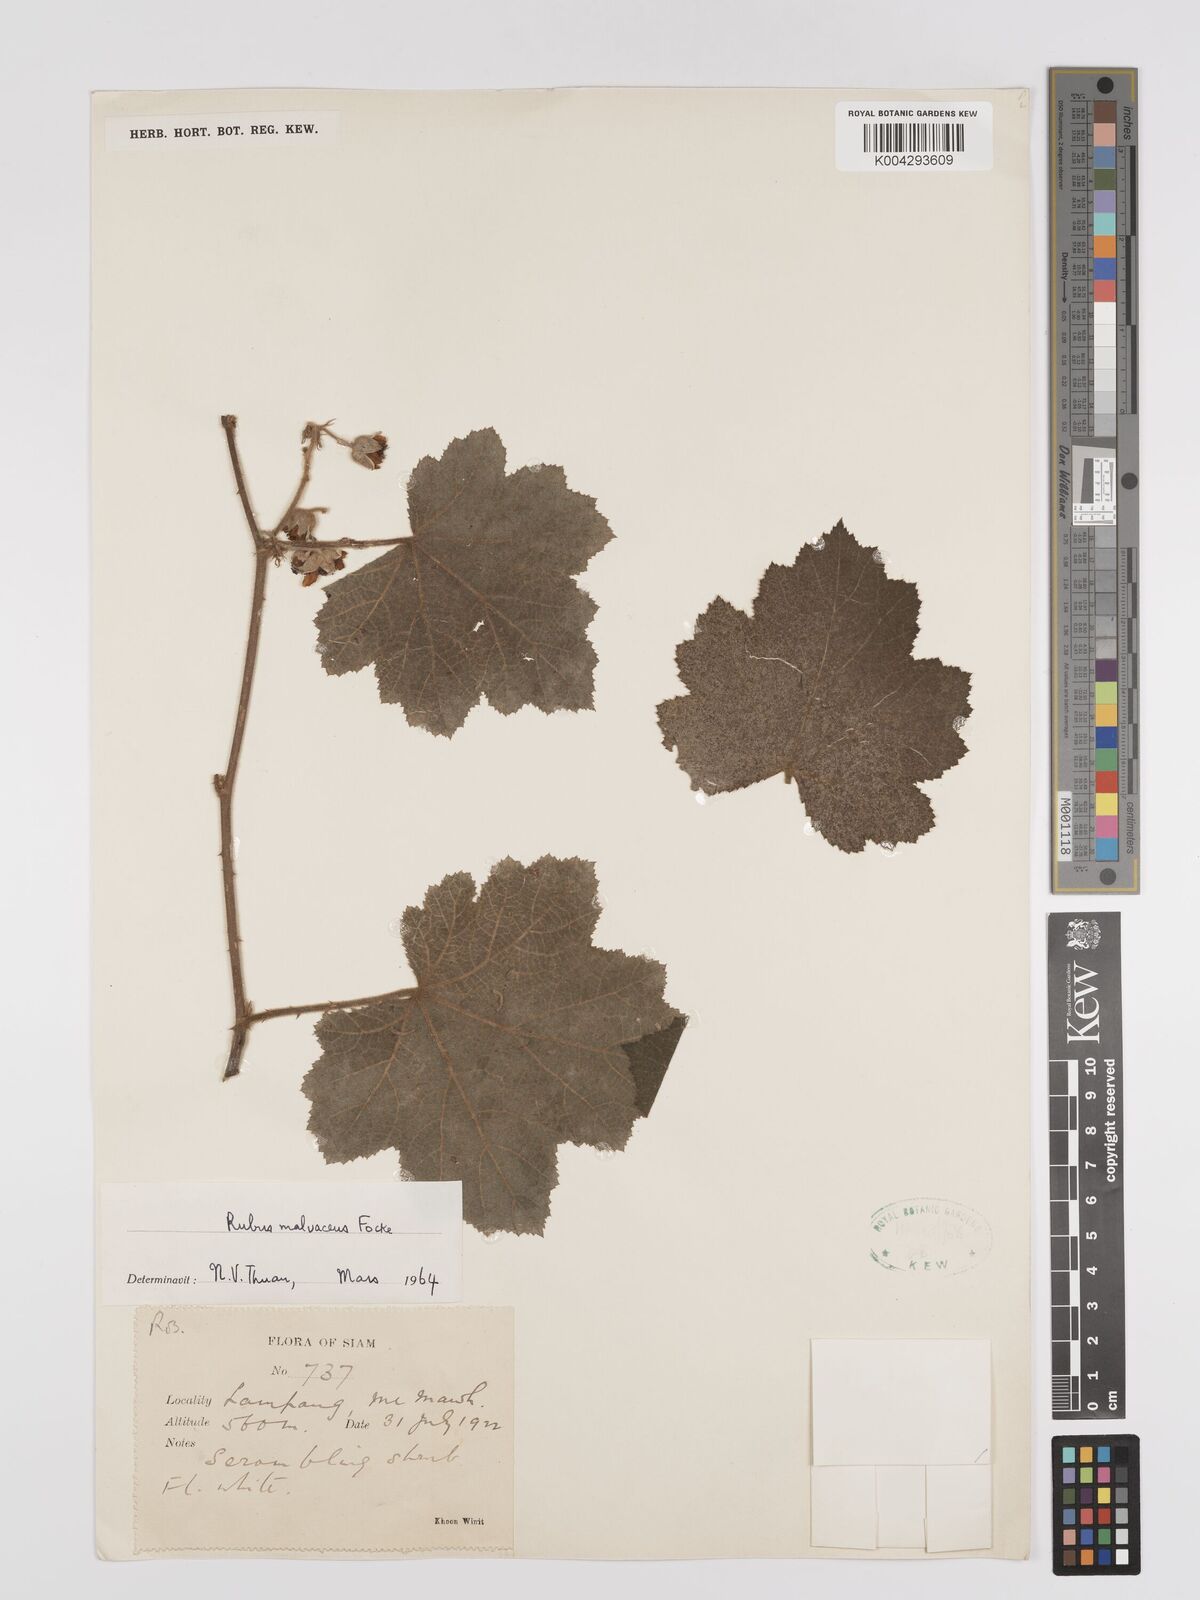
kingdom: Plantae
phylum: Tracheophyta
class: Magnoliopsida
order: Rosales
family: Rosaceae
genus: Rubus
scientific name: Rubus malvaceus
